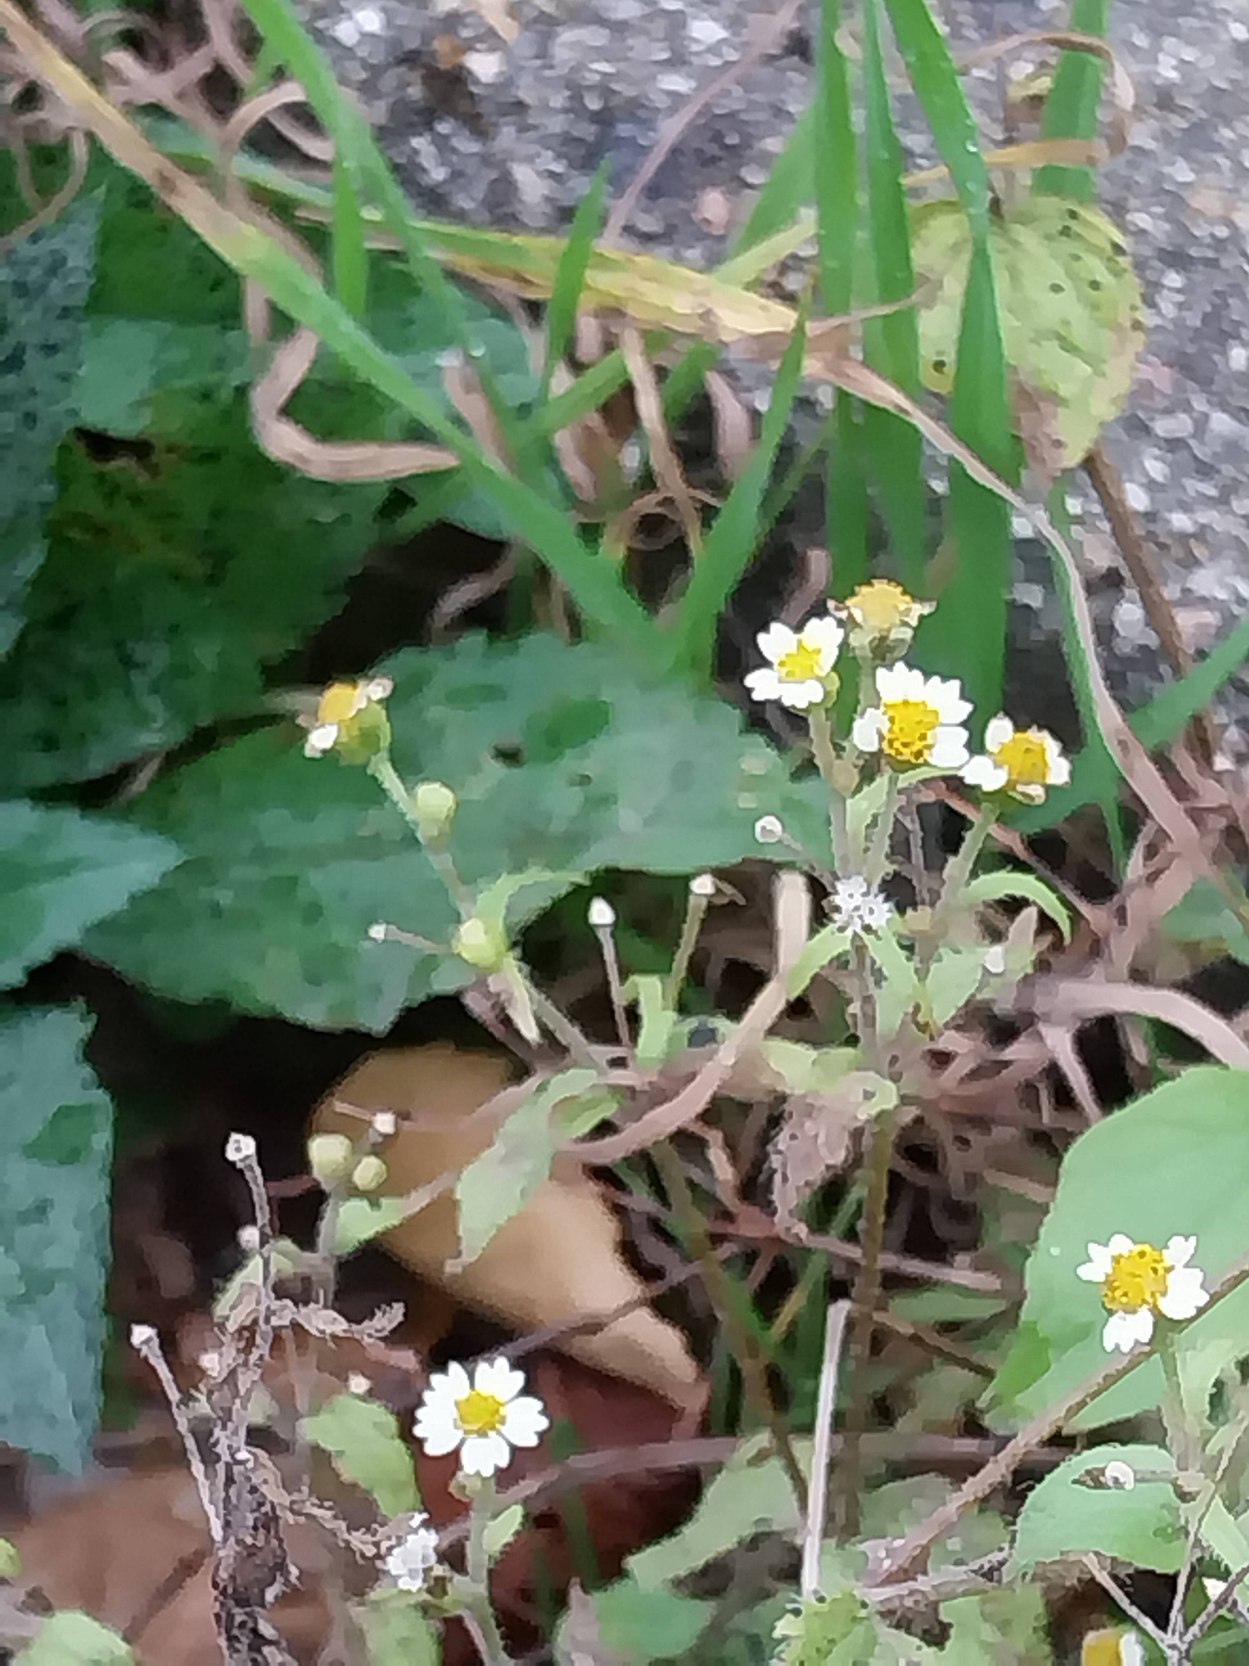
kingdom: Plantae
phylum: Tracheophyta
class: Magnoliopsida
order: Asterales
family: Asteraceae
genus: Galinsoga
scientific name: Galinsoga quadriradiata
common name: Kirtel-kortstråle
